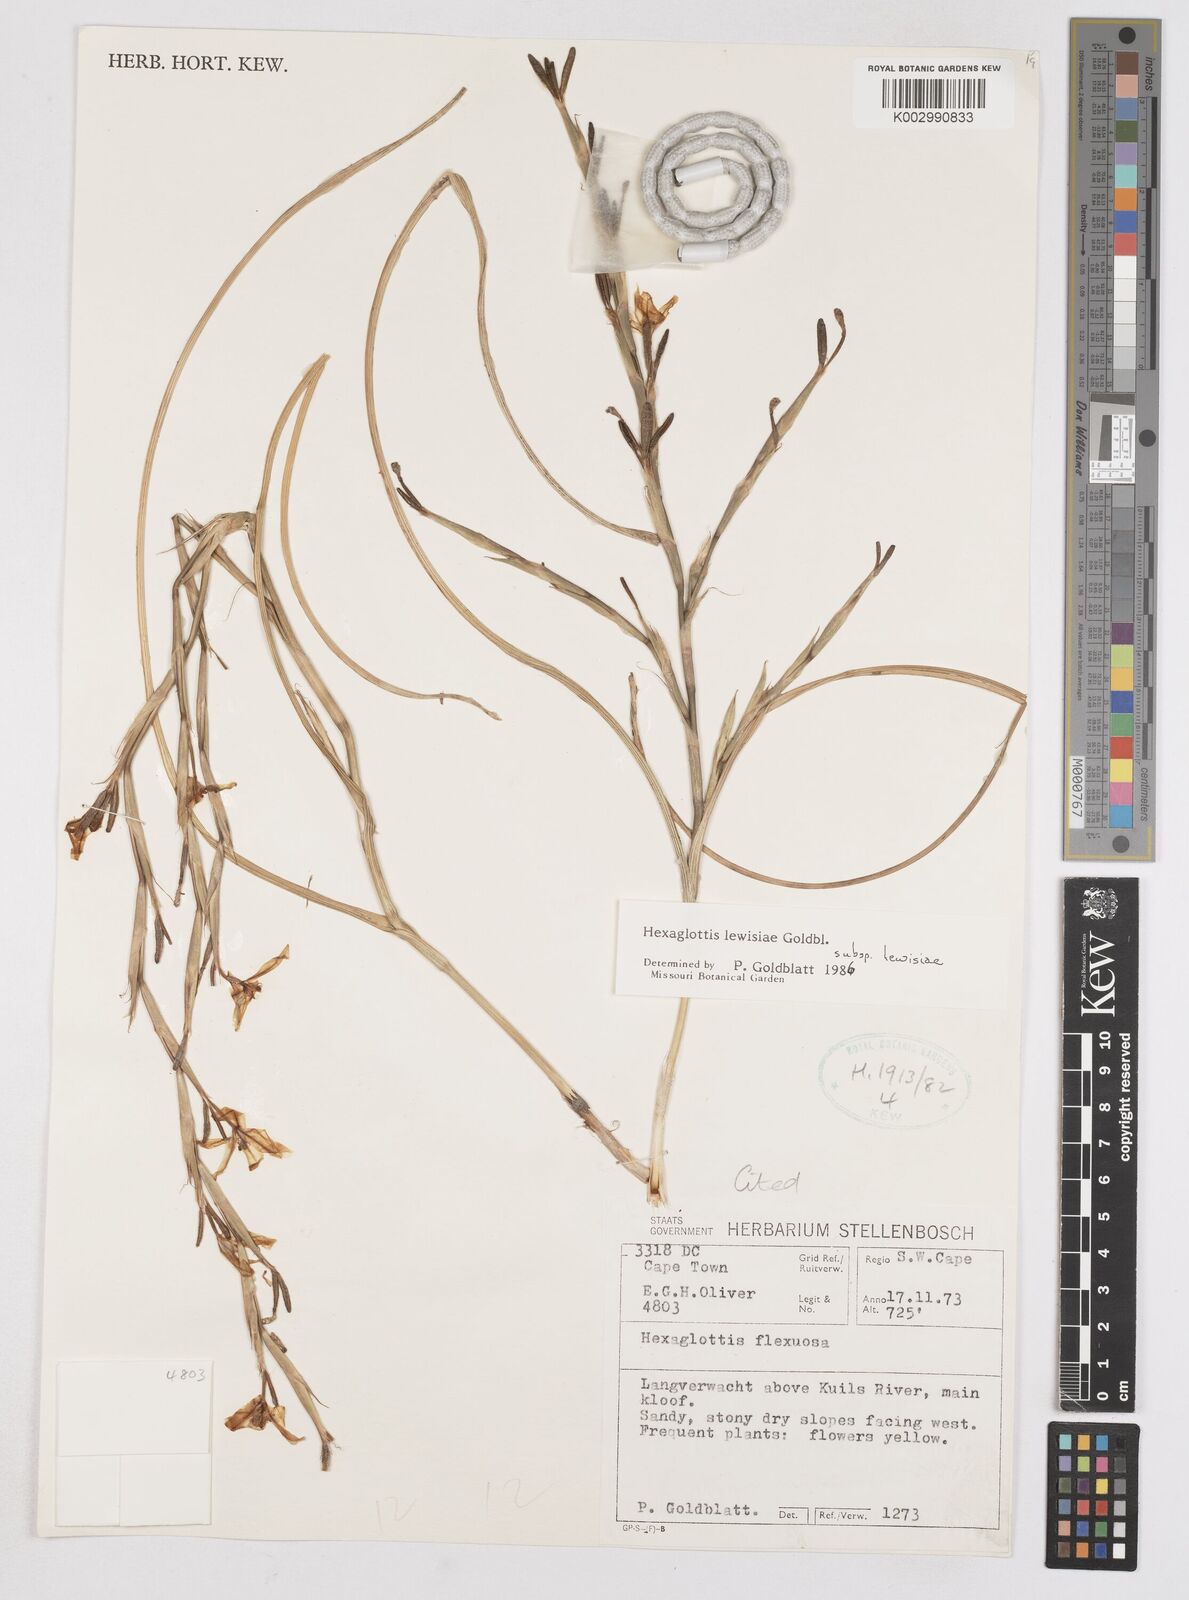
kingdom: Plantae
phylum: Tracheophyta
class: Liliopsida
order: Asparagales
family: Iridaceae
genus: Moraea
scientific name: Moraea lewisiae
